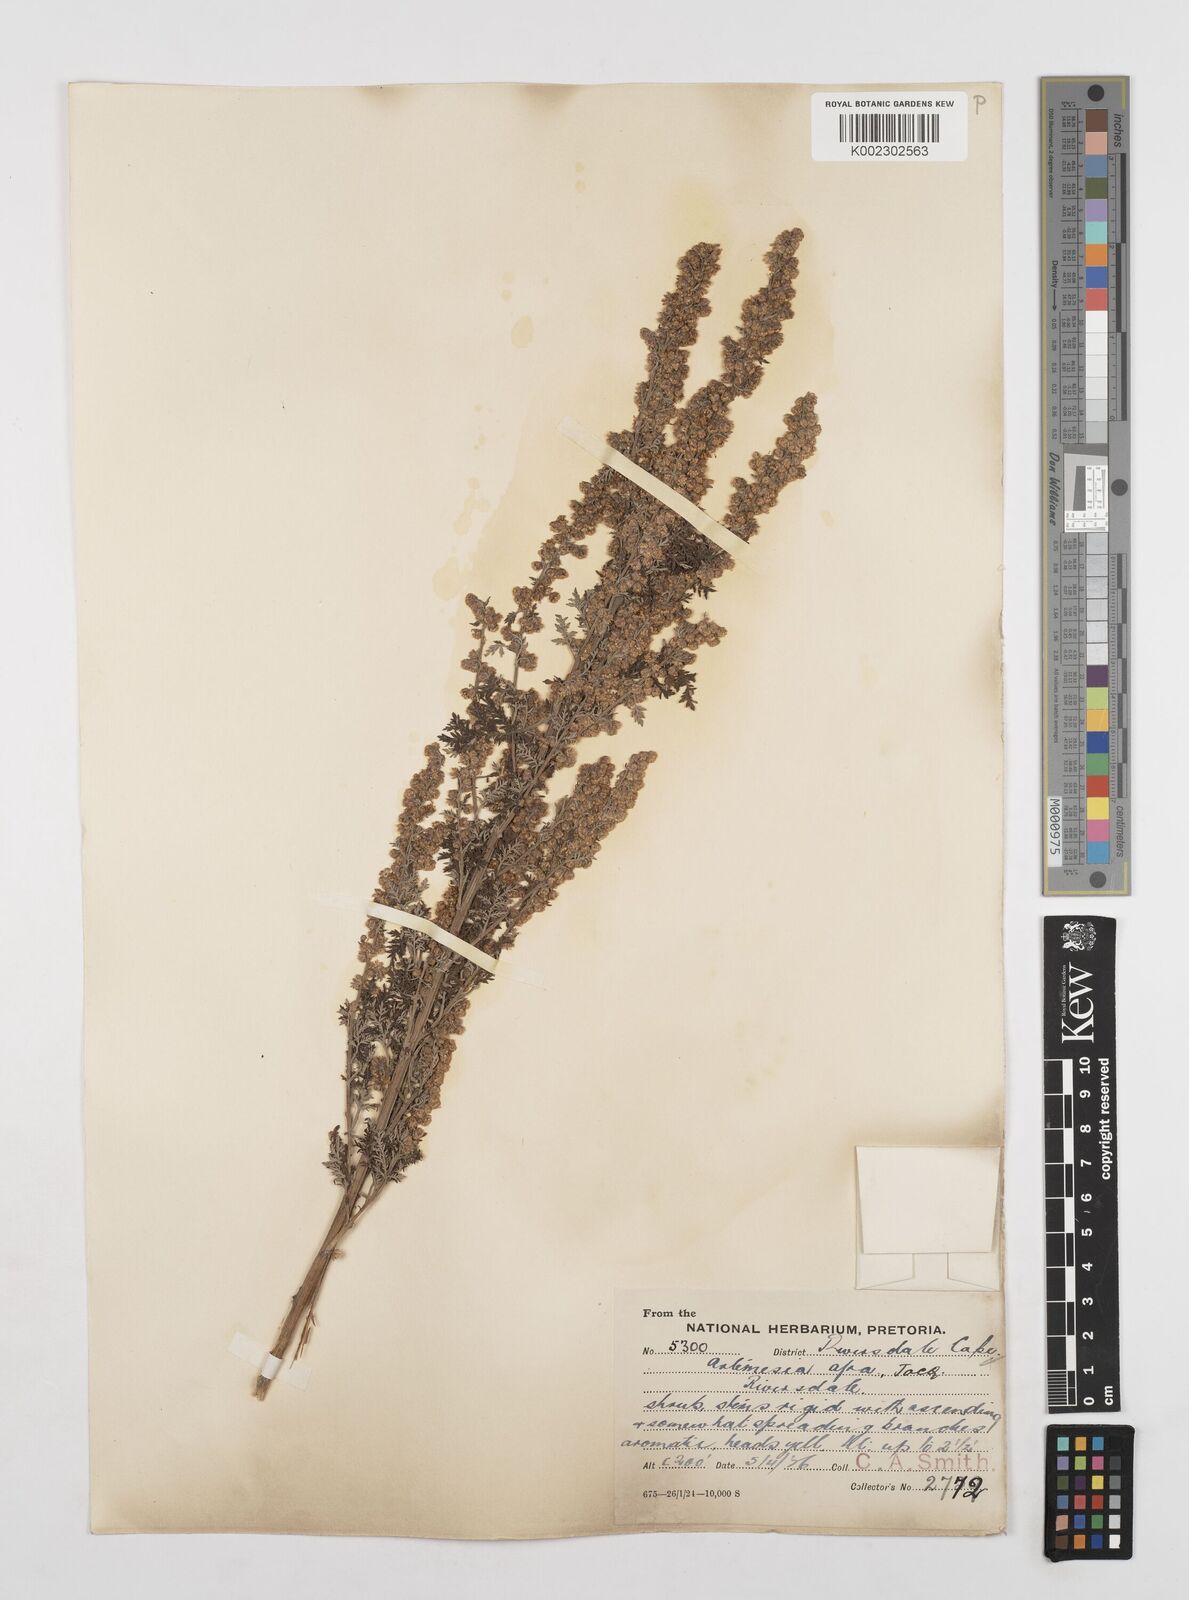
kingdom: Plantae
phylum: Tracheophyta
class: Magnoliopsida
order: Asterales
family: Asteraceae
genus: Artemisia
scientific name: Artemisia afra
